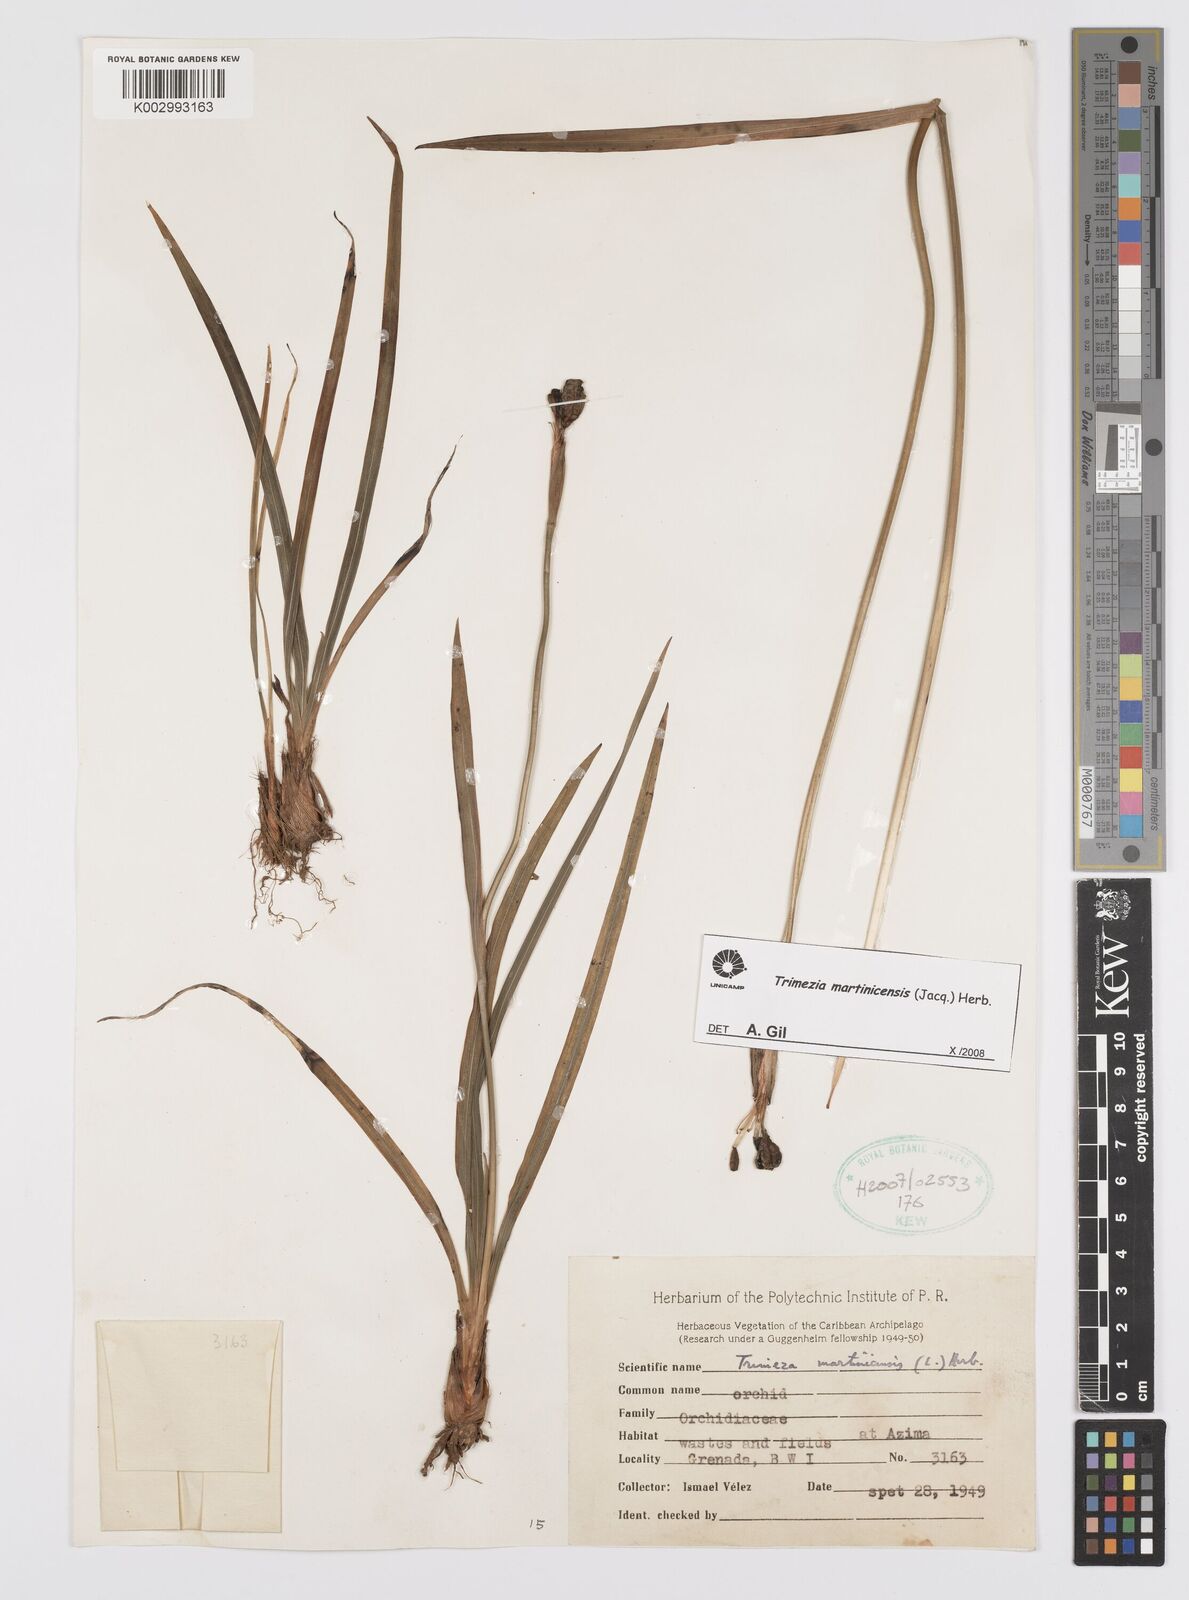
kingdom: Plantae
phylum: Tracheophyta
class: Liliopsida
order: Asparagales
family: Iridaceae
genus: Trimezia
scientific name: Trimezia martinicensis
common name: Martinique trimezia
